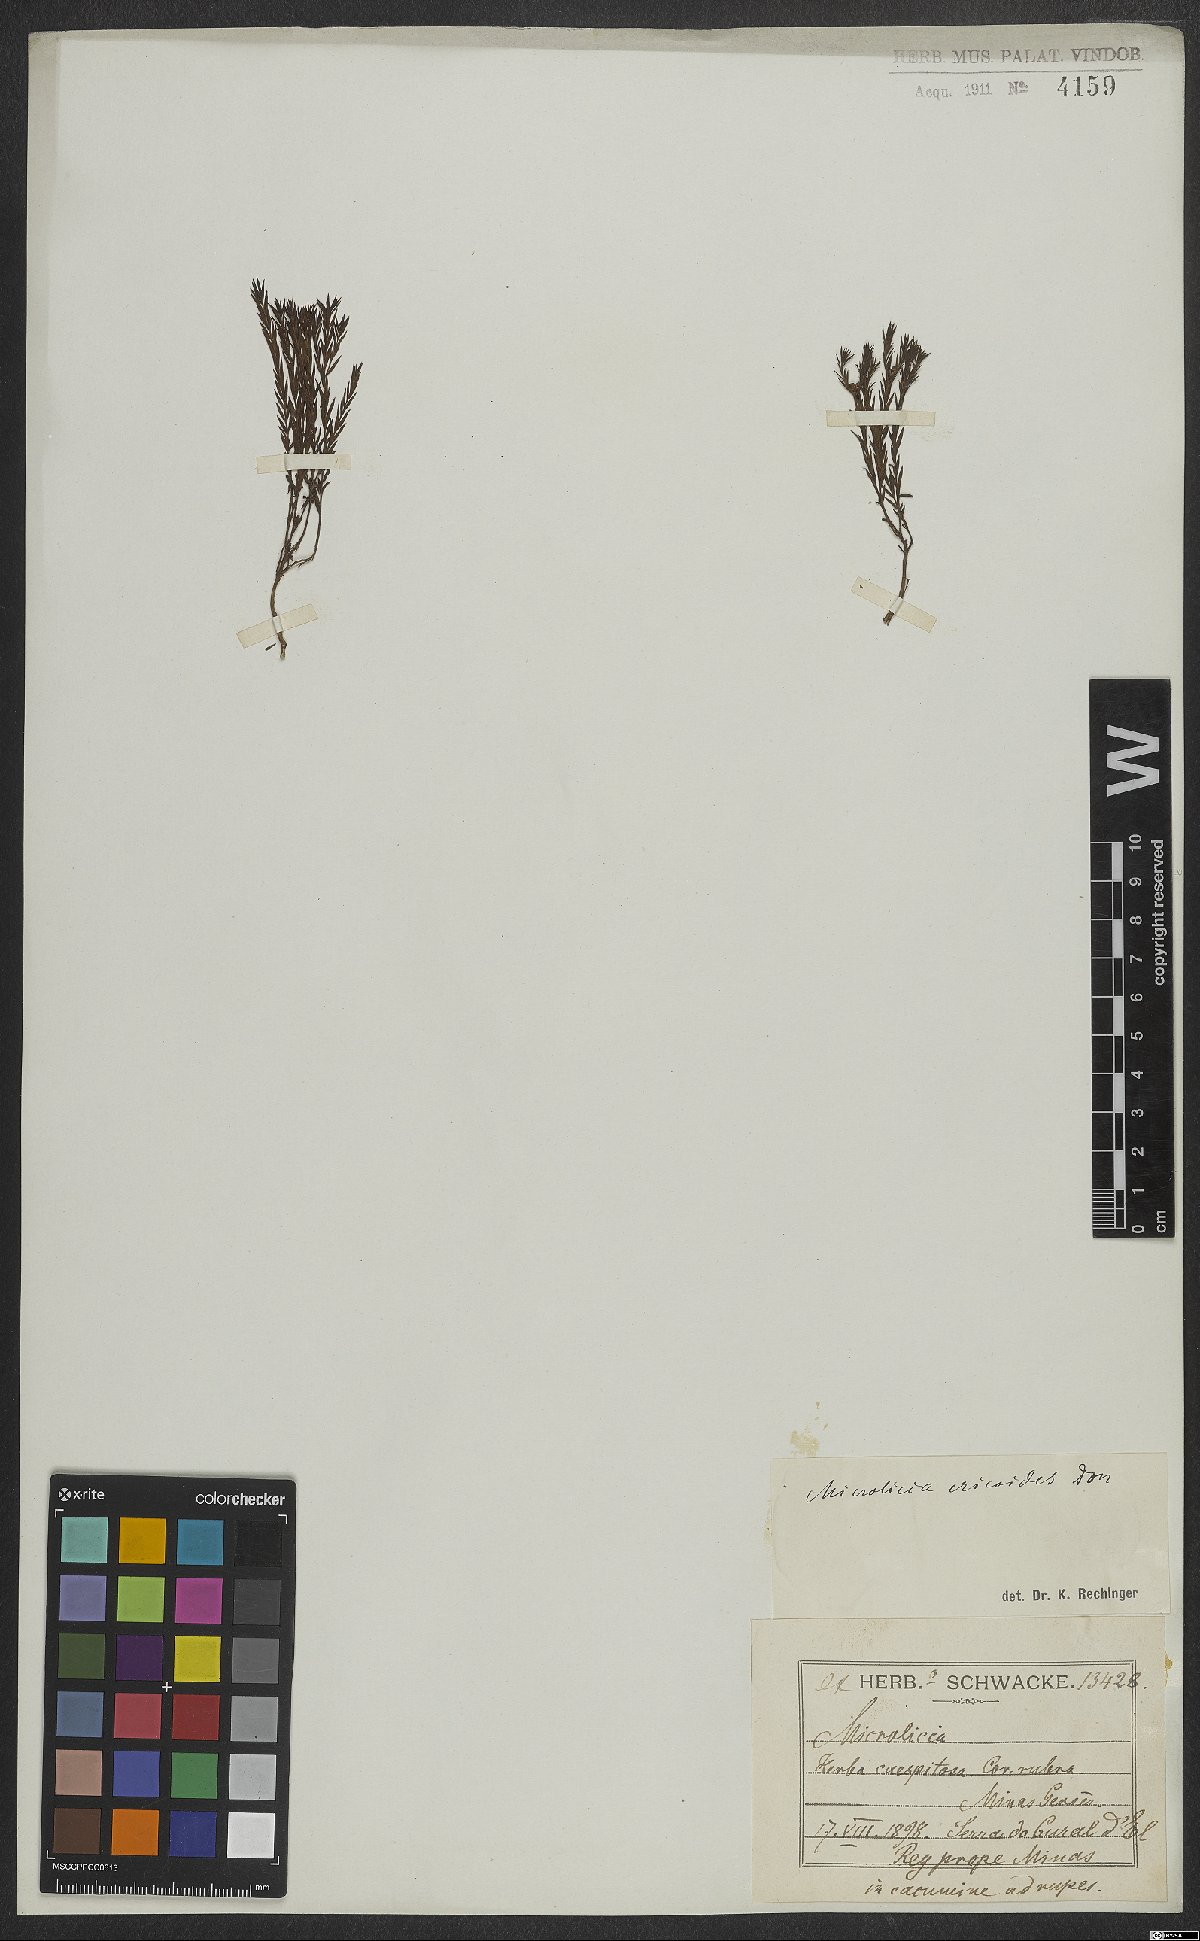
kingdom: Plantae
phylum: Tracheophyta
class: Magnoliopsida
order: Myrtales
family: Melastomataceae
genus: Microlicia
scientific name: Microlicia ericoides
